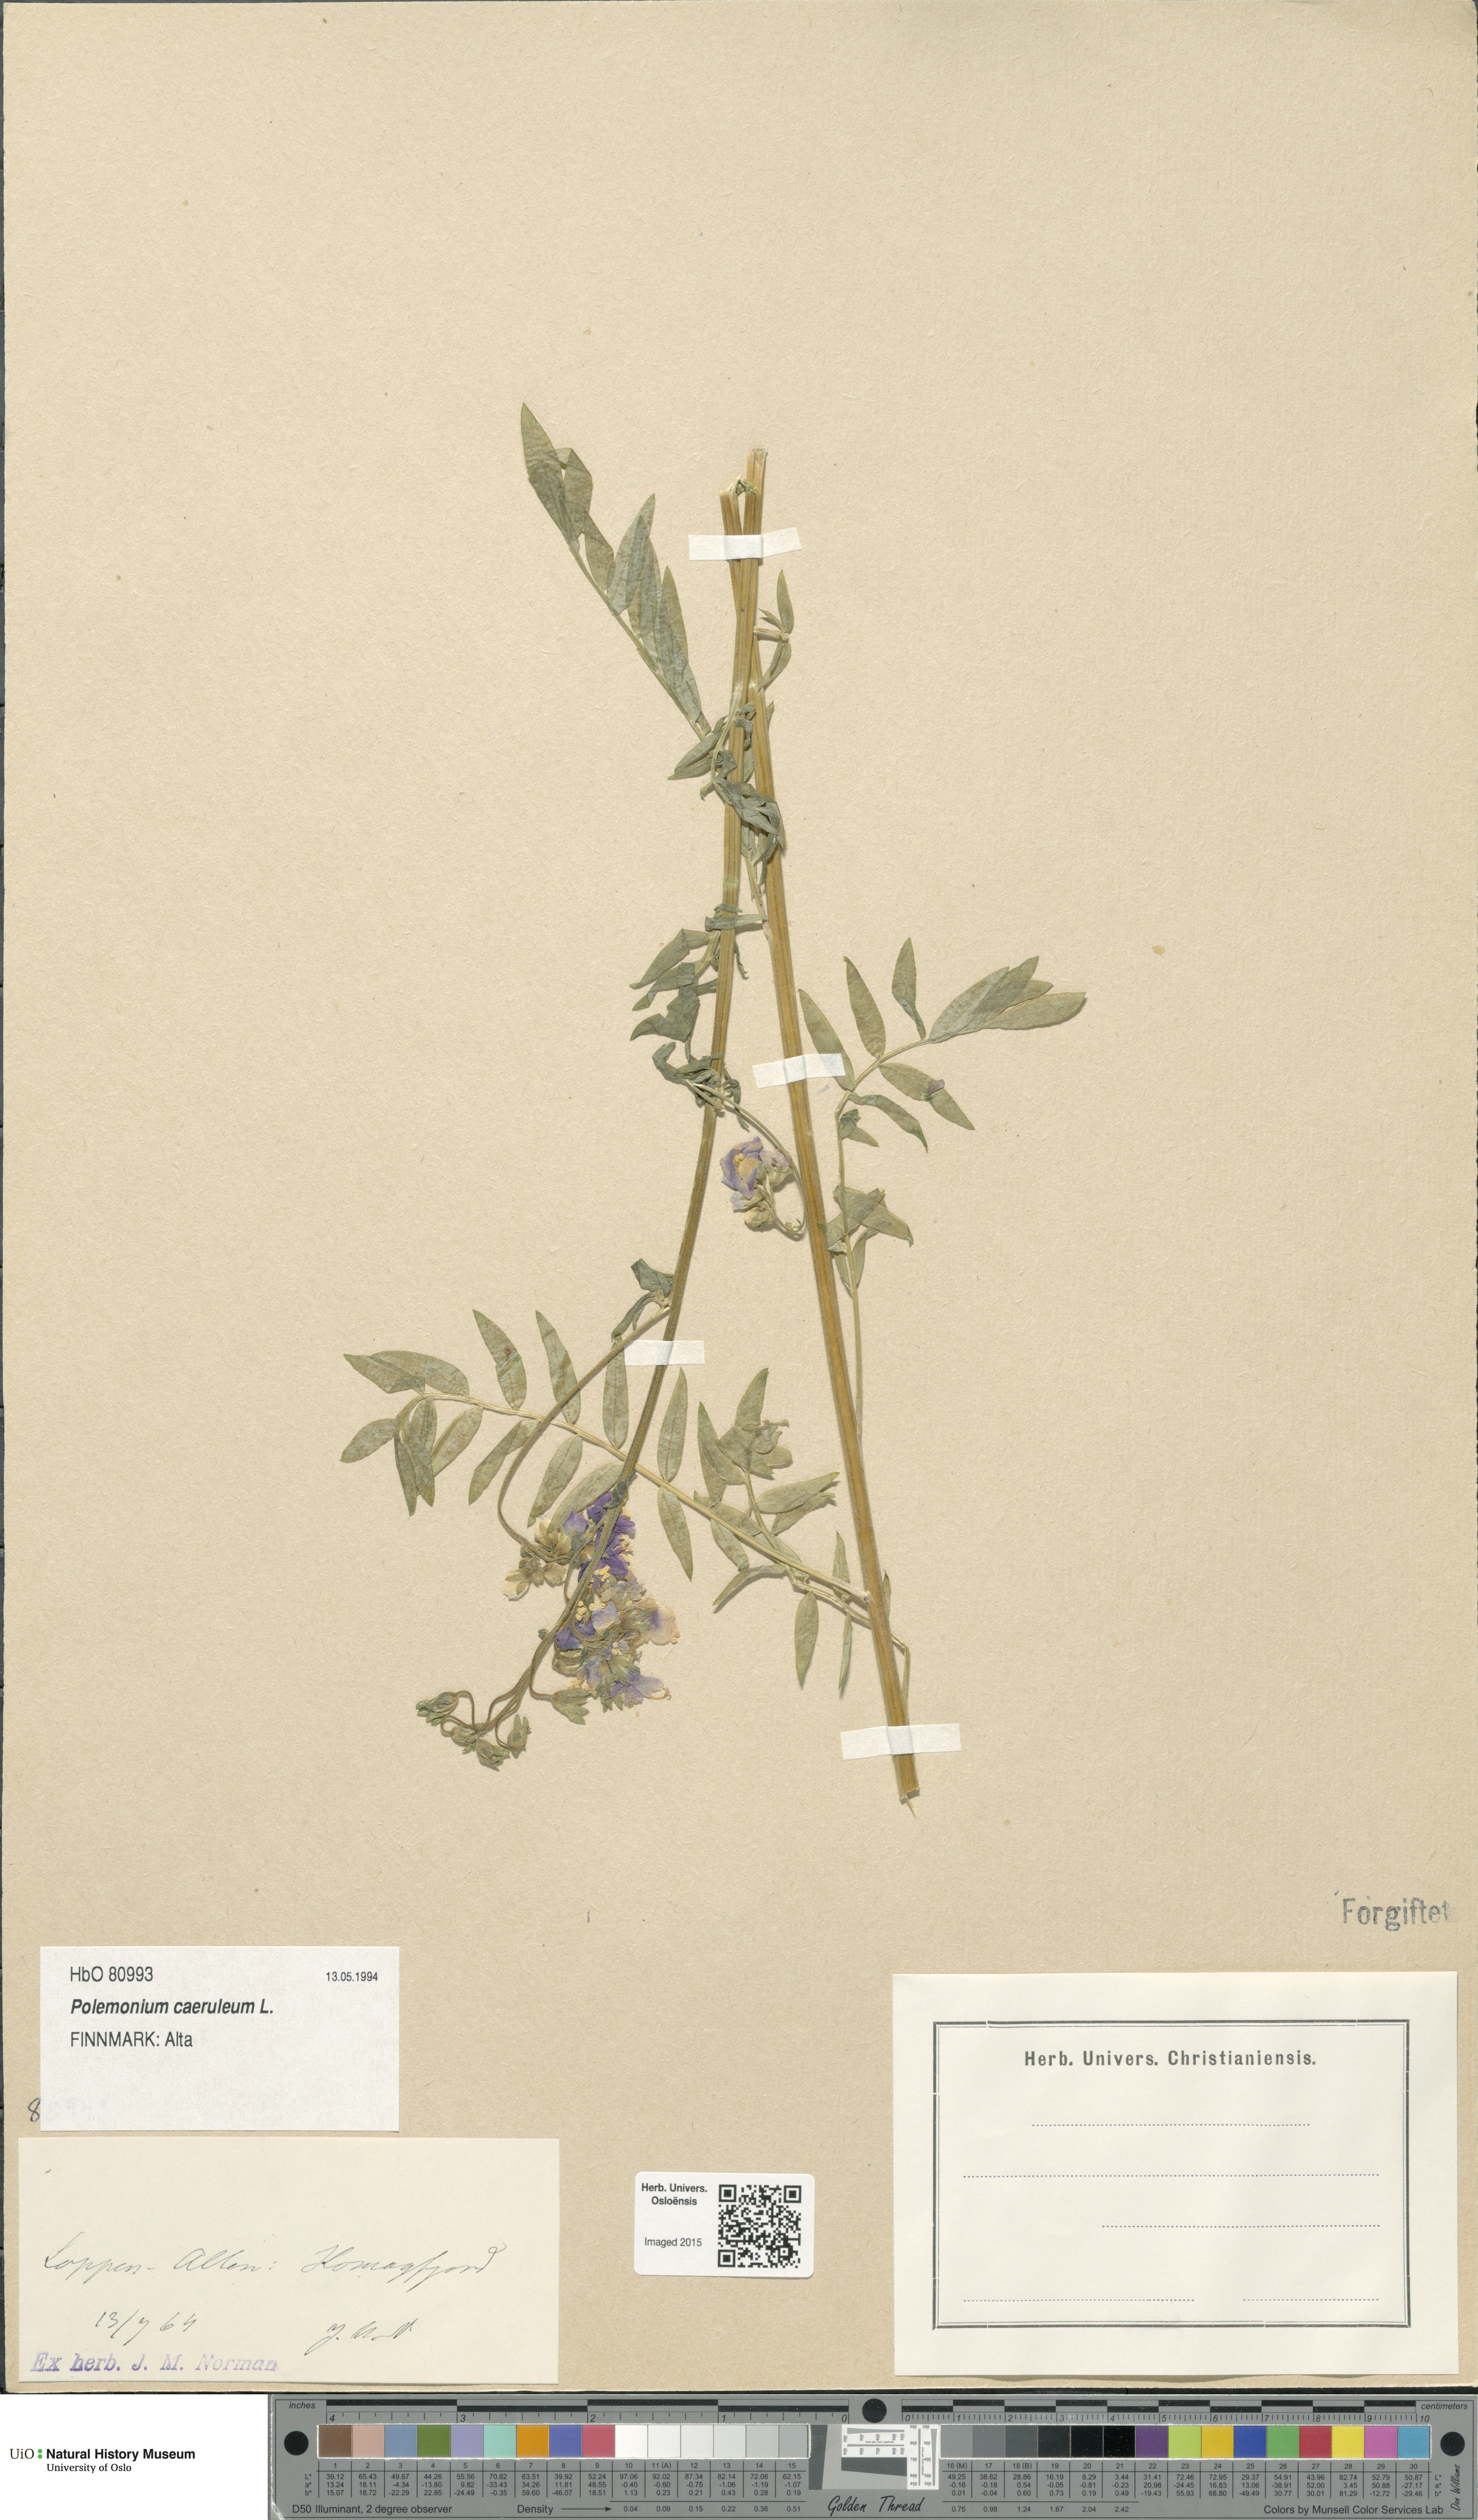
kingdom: Plantae
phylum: Tracheophyta
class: Magnoliopsida
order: Ericales
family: Polemoniaceae
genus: Polemonium
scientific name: Polemonium caeruleum
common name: Jacob's-ladder
